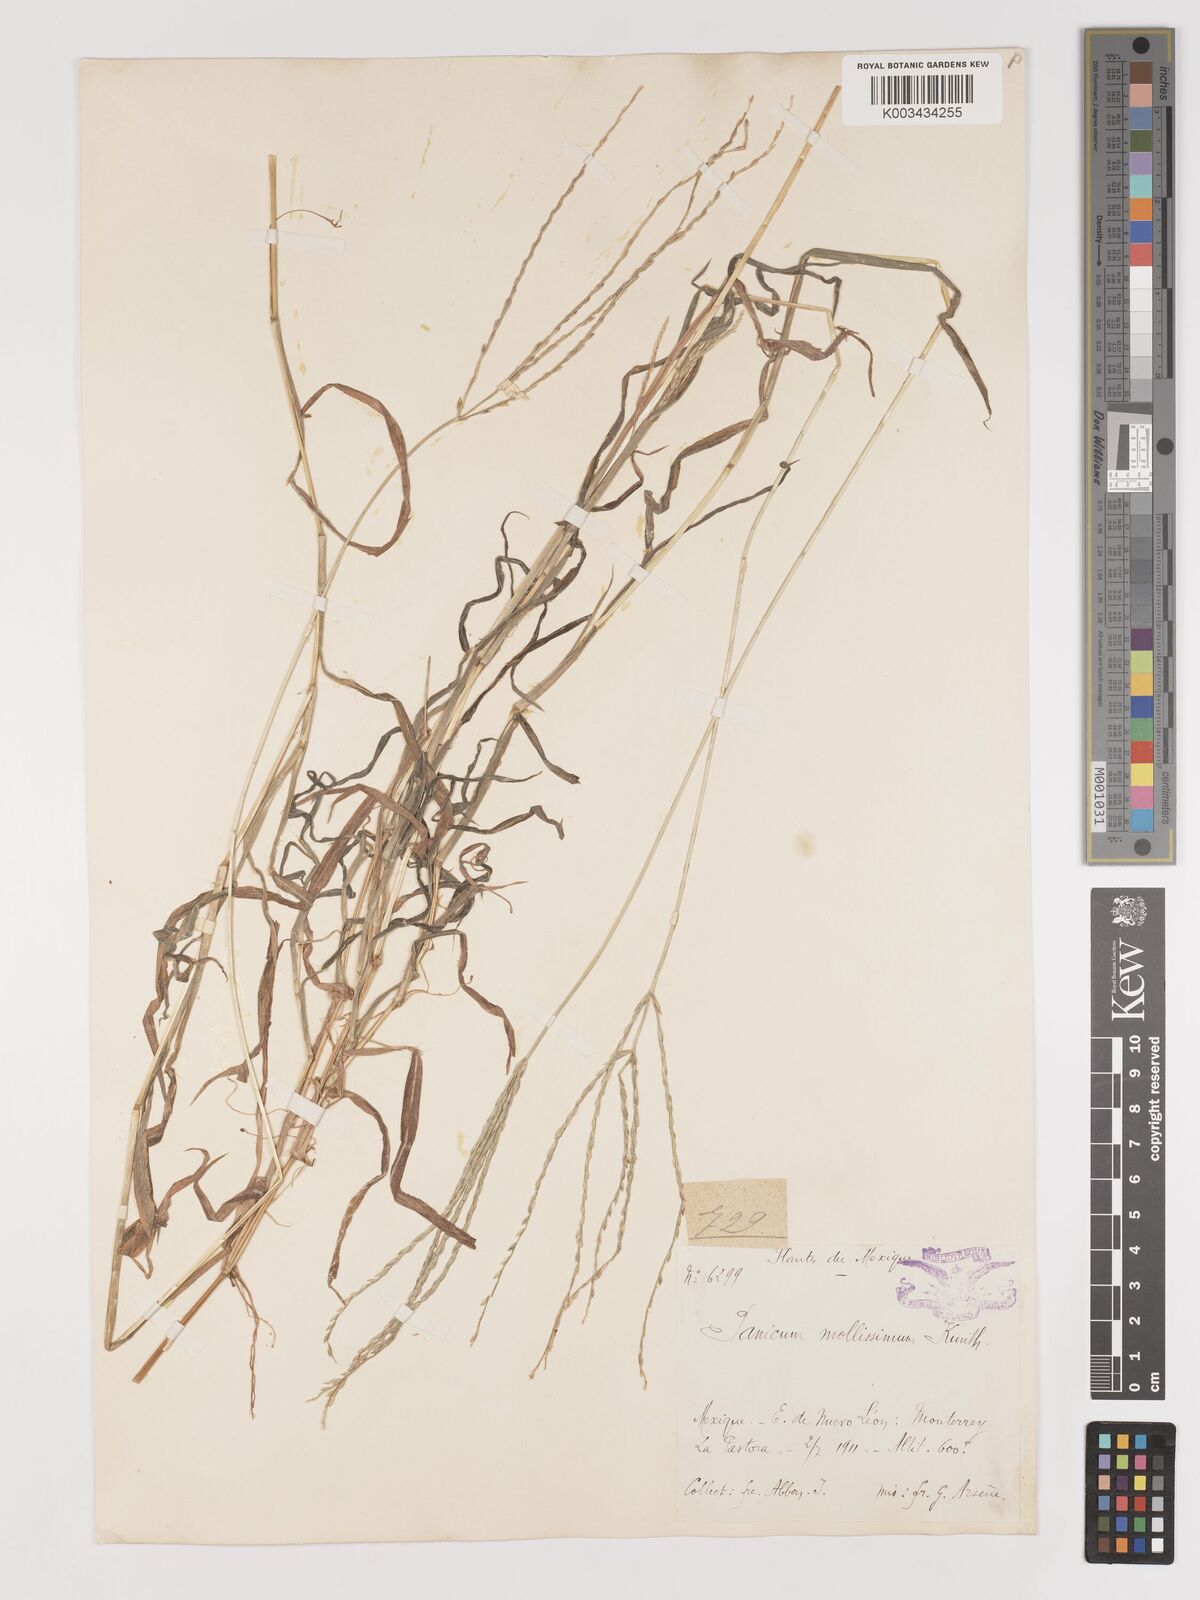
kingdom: Plantae
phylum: Tracheophyta
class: Liliopsida
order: Poales
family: Poaceae
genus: Digitaria
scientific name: Digitaria leucites
